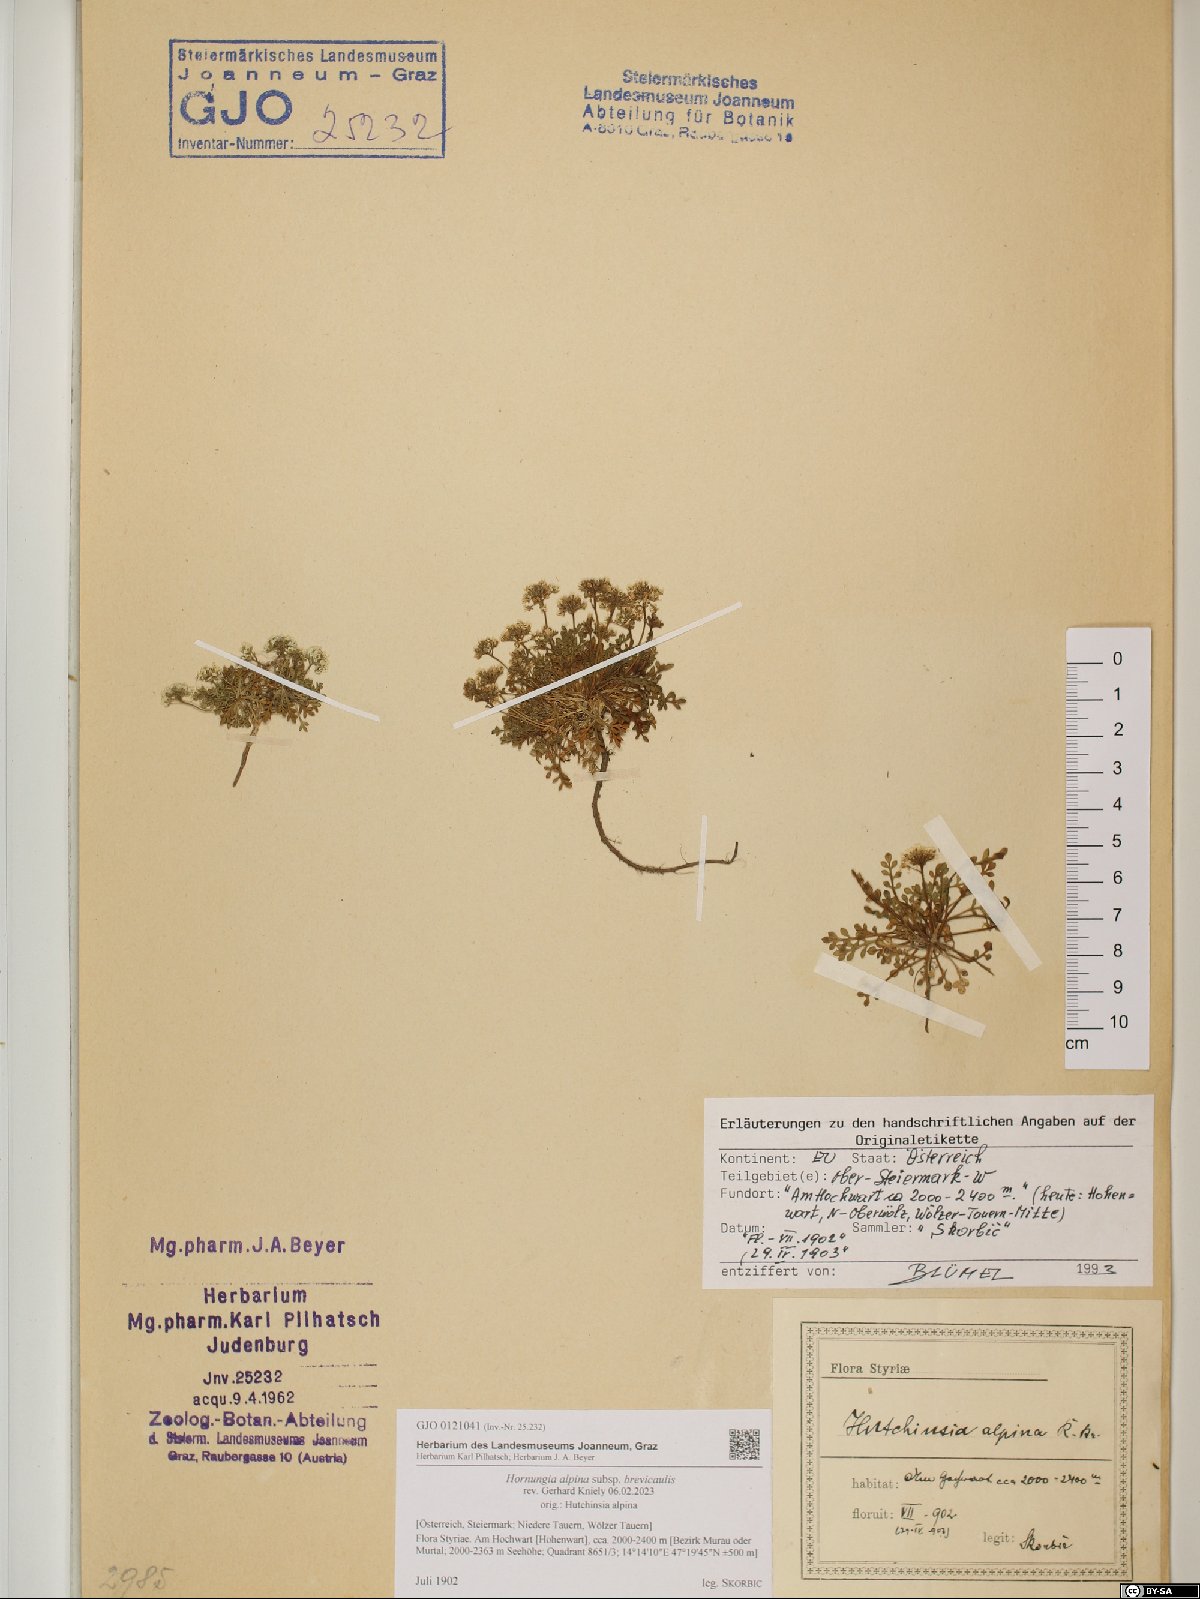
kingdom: Plantae
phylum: Tracheophyta
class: Magnoliopsida
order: Brassicales
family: Brassicaceae
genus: Hornungia
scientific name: Hornungia alpina
